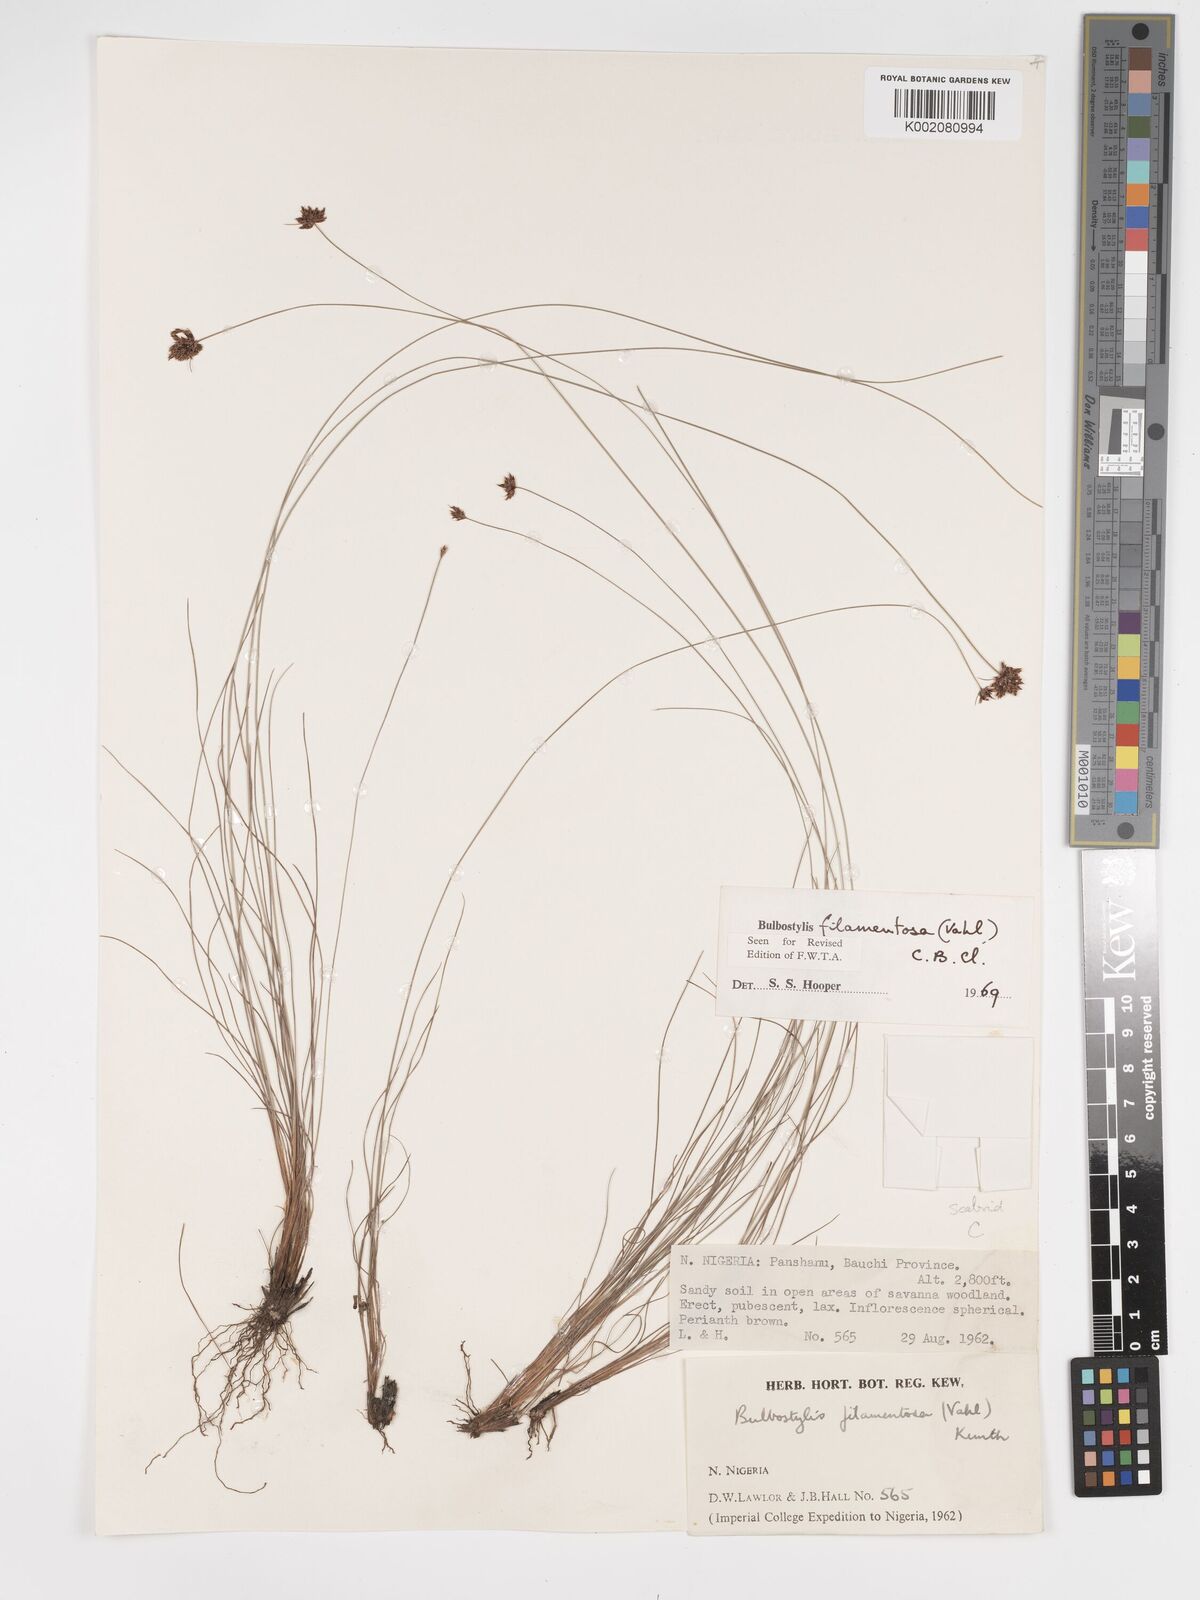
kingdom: Plantae
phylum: Tracheophyta
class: Liliopsida
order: Poales
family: Cyperaceae
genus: Bulbostylis
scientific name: Bulbostylis filamentosa
